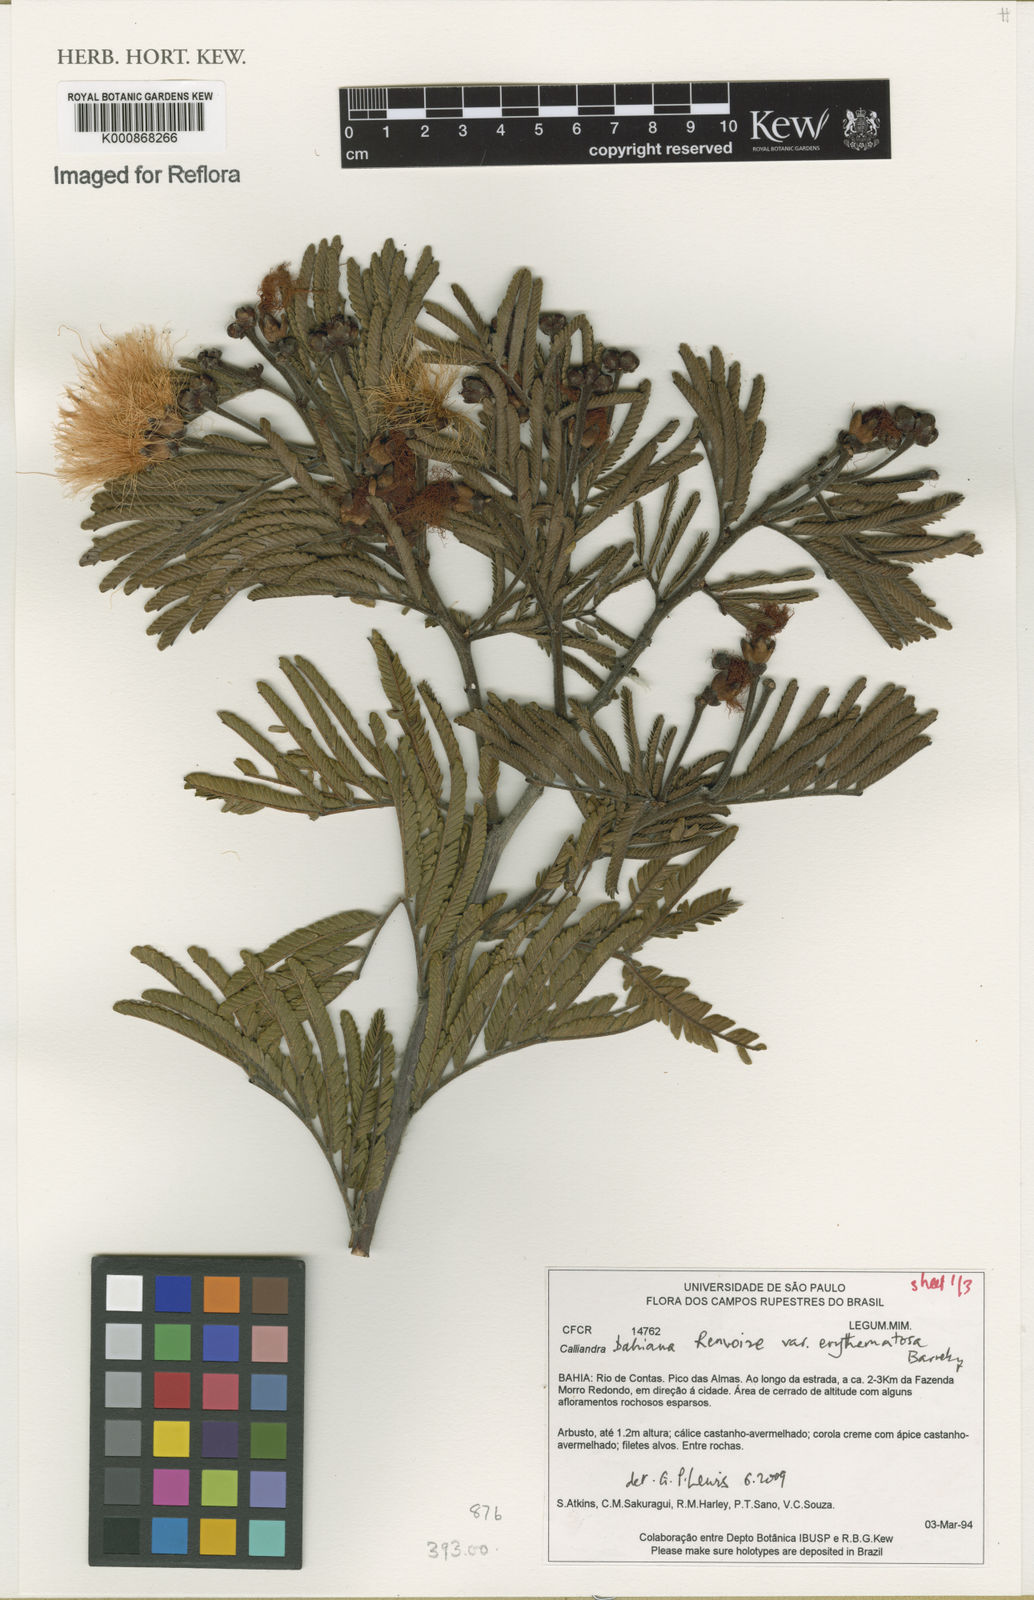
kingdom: Plantae
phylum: Tracheophyta
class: Magnoliopsida
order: Fabales
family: Fabaceae
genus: Calliandra
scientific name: Calliandra bahiana
